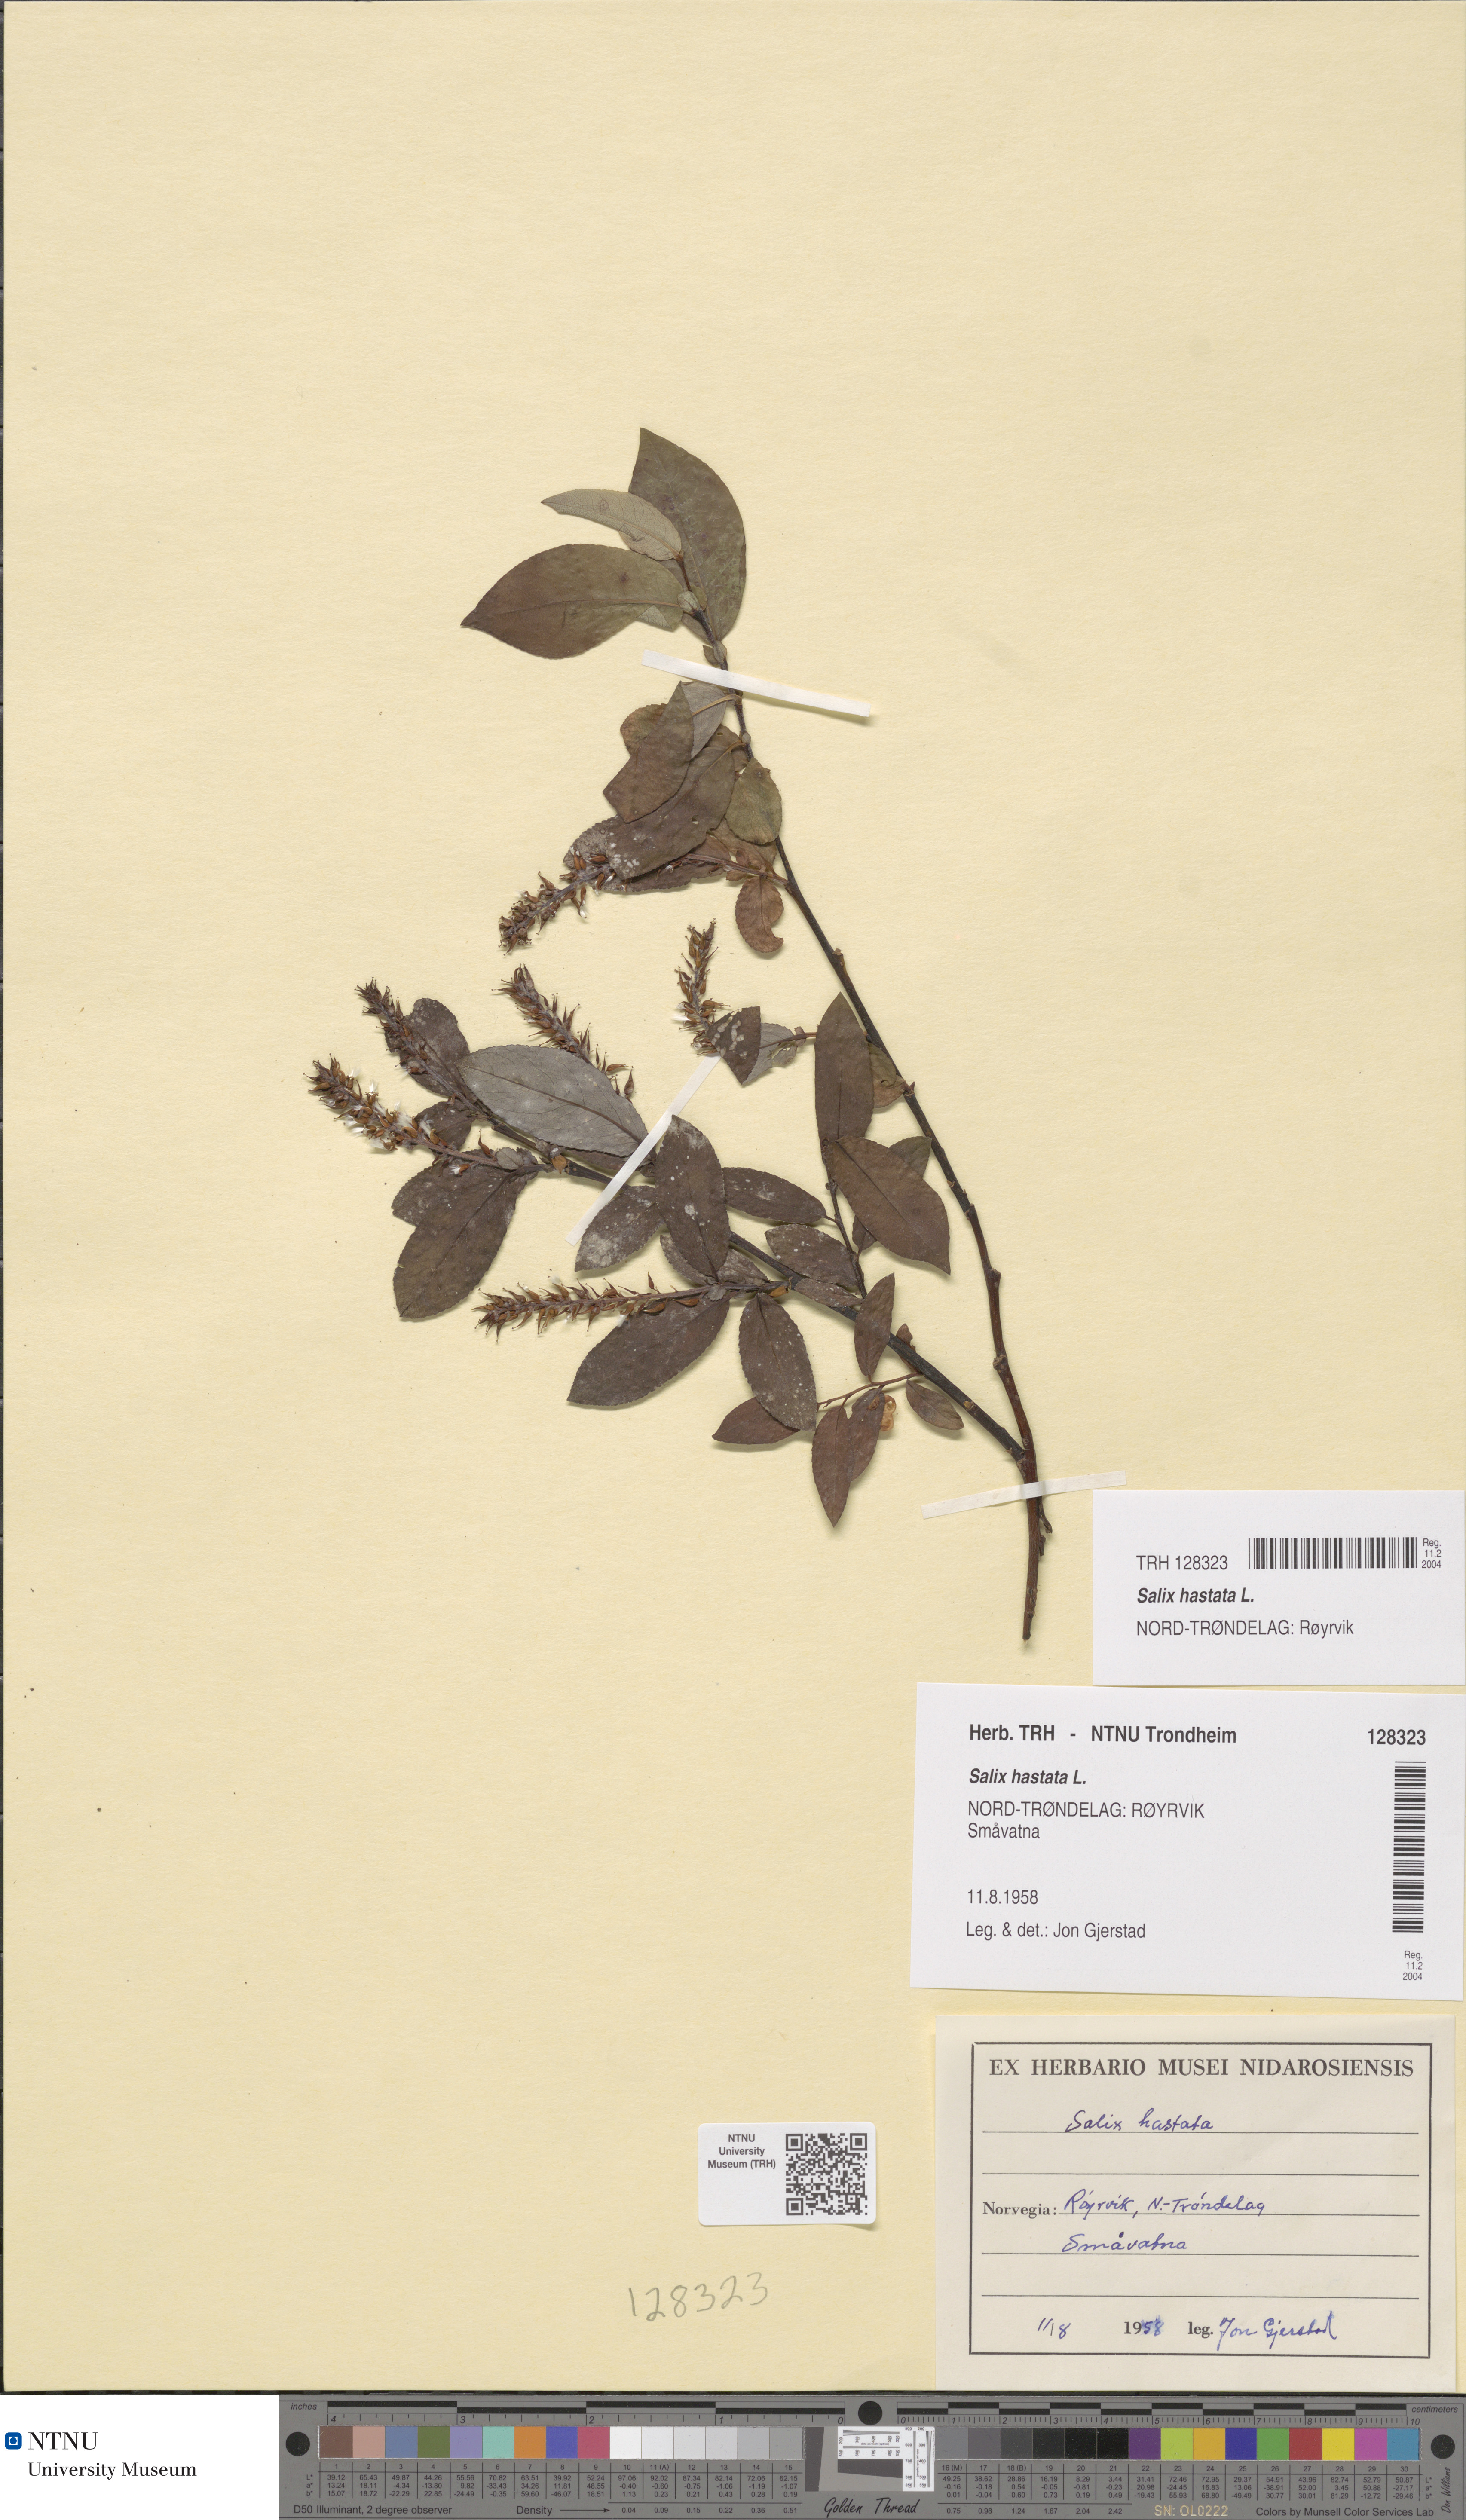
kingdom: Plantae
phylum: Tracheophyta
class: Magnoliopsida
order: Malpighiales
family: Salicaceae
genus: Salix
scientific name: Salix hastata
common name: Halberd willow
